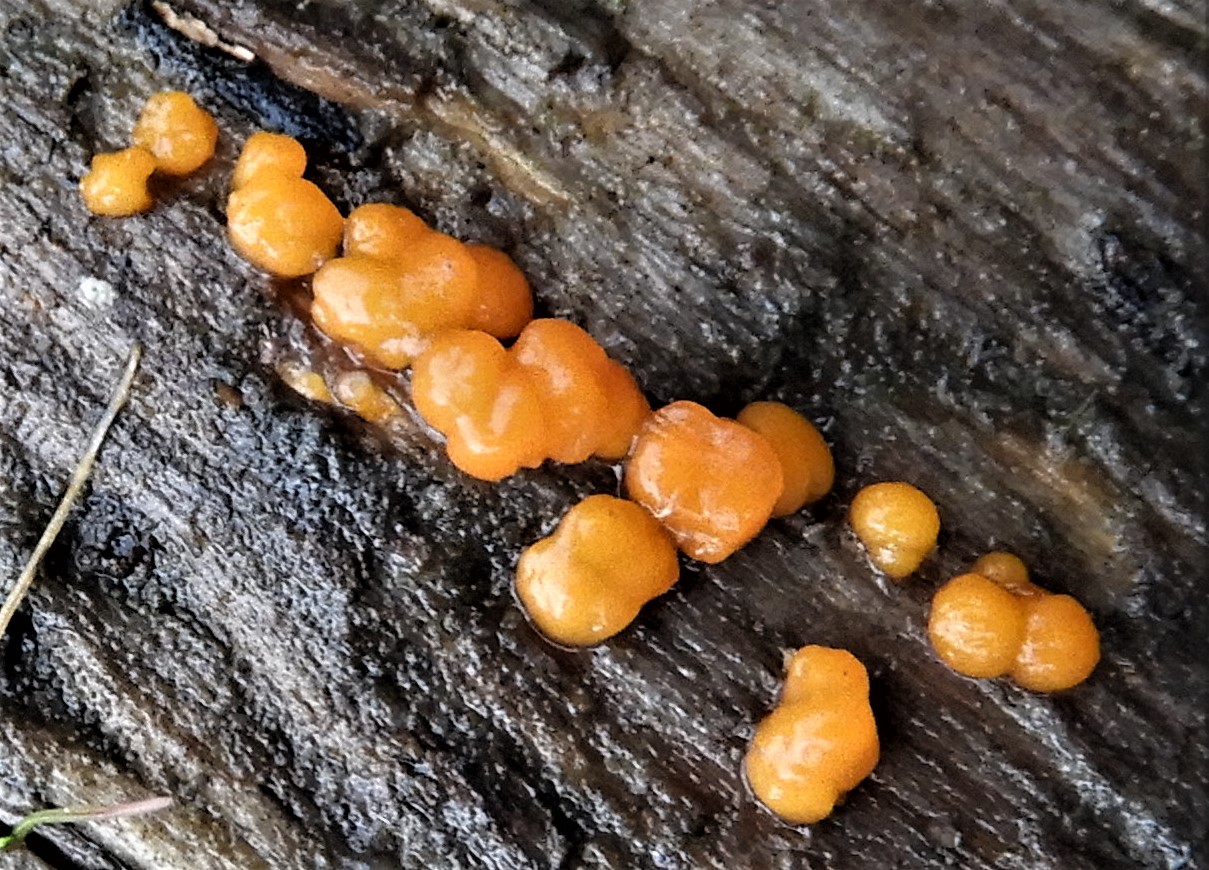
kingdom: Fungi
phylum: Basidiomycota
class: Dacrymycetes
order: Dacrymycetales
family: Dacrymycetaceae
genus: Dacrymyces
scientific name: Dacrymyces stillatus
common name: almindelig tåresvamp
